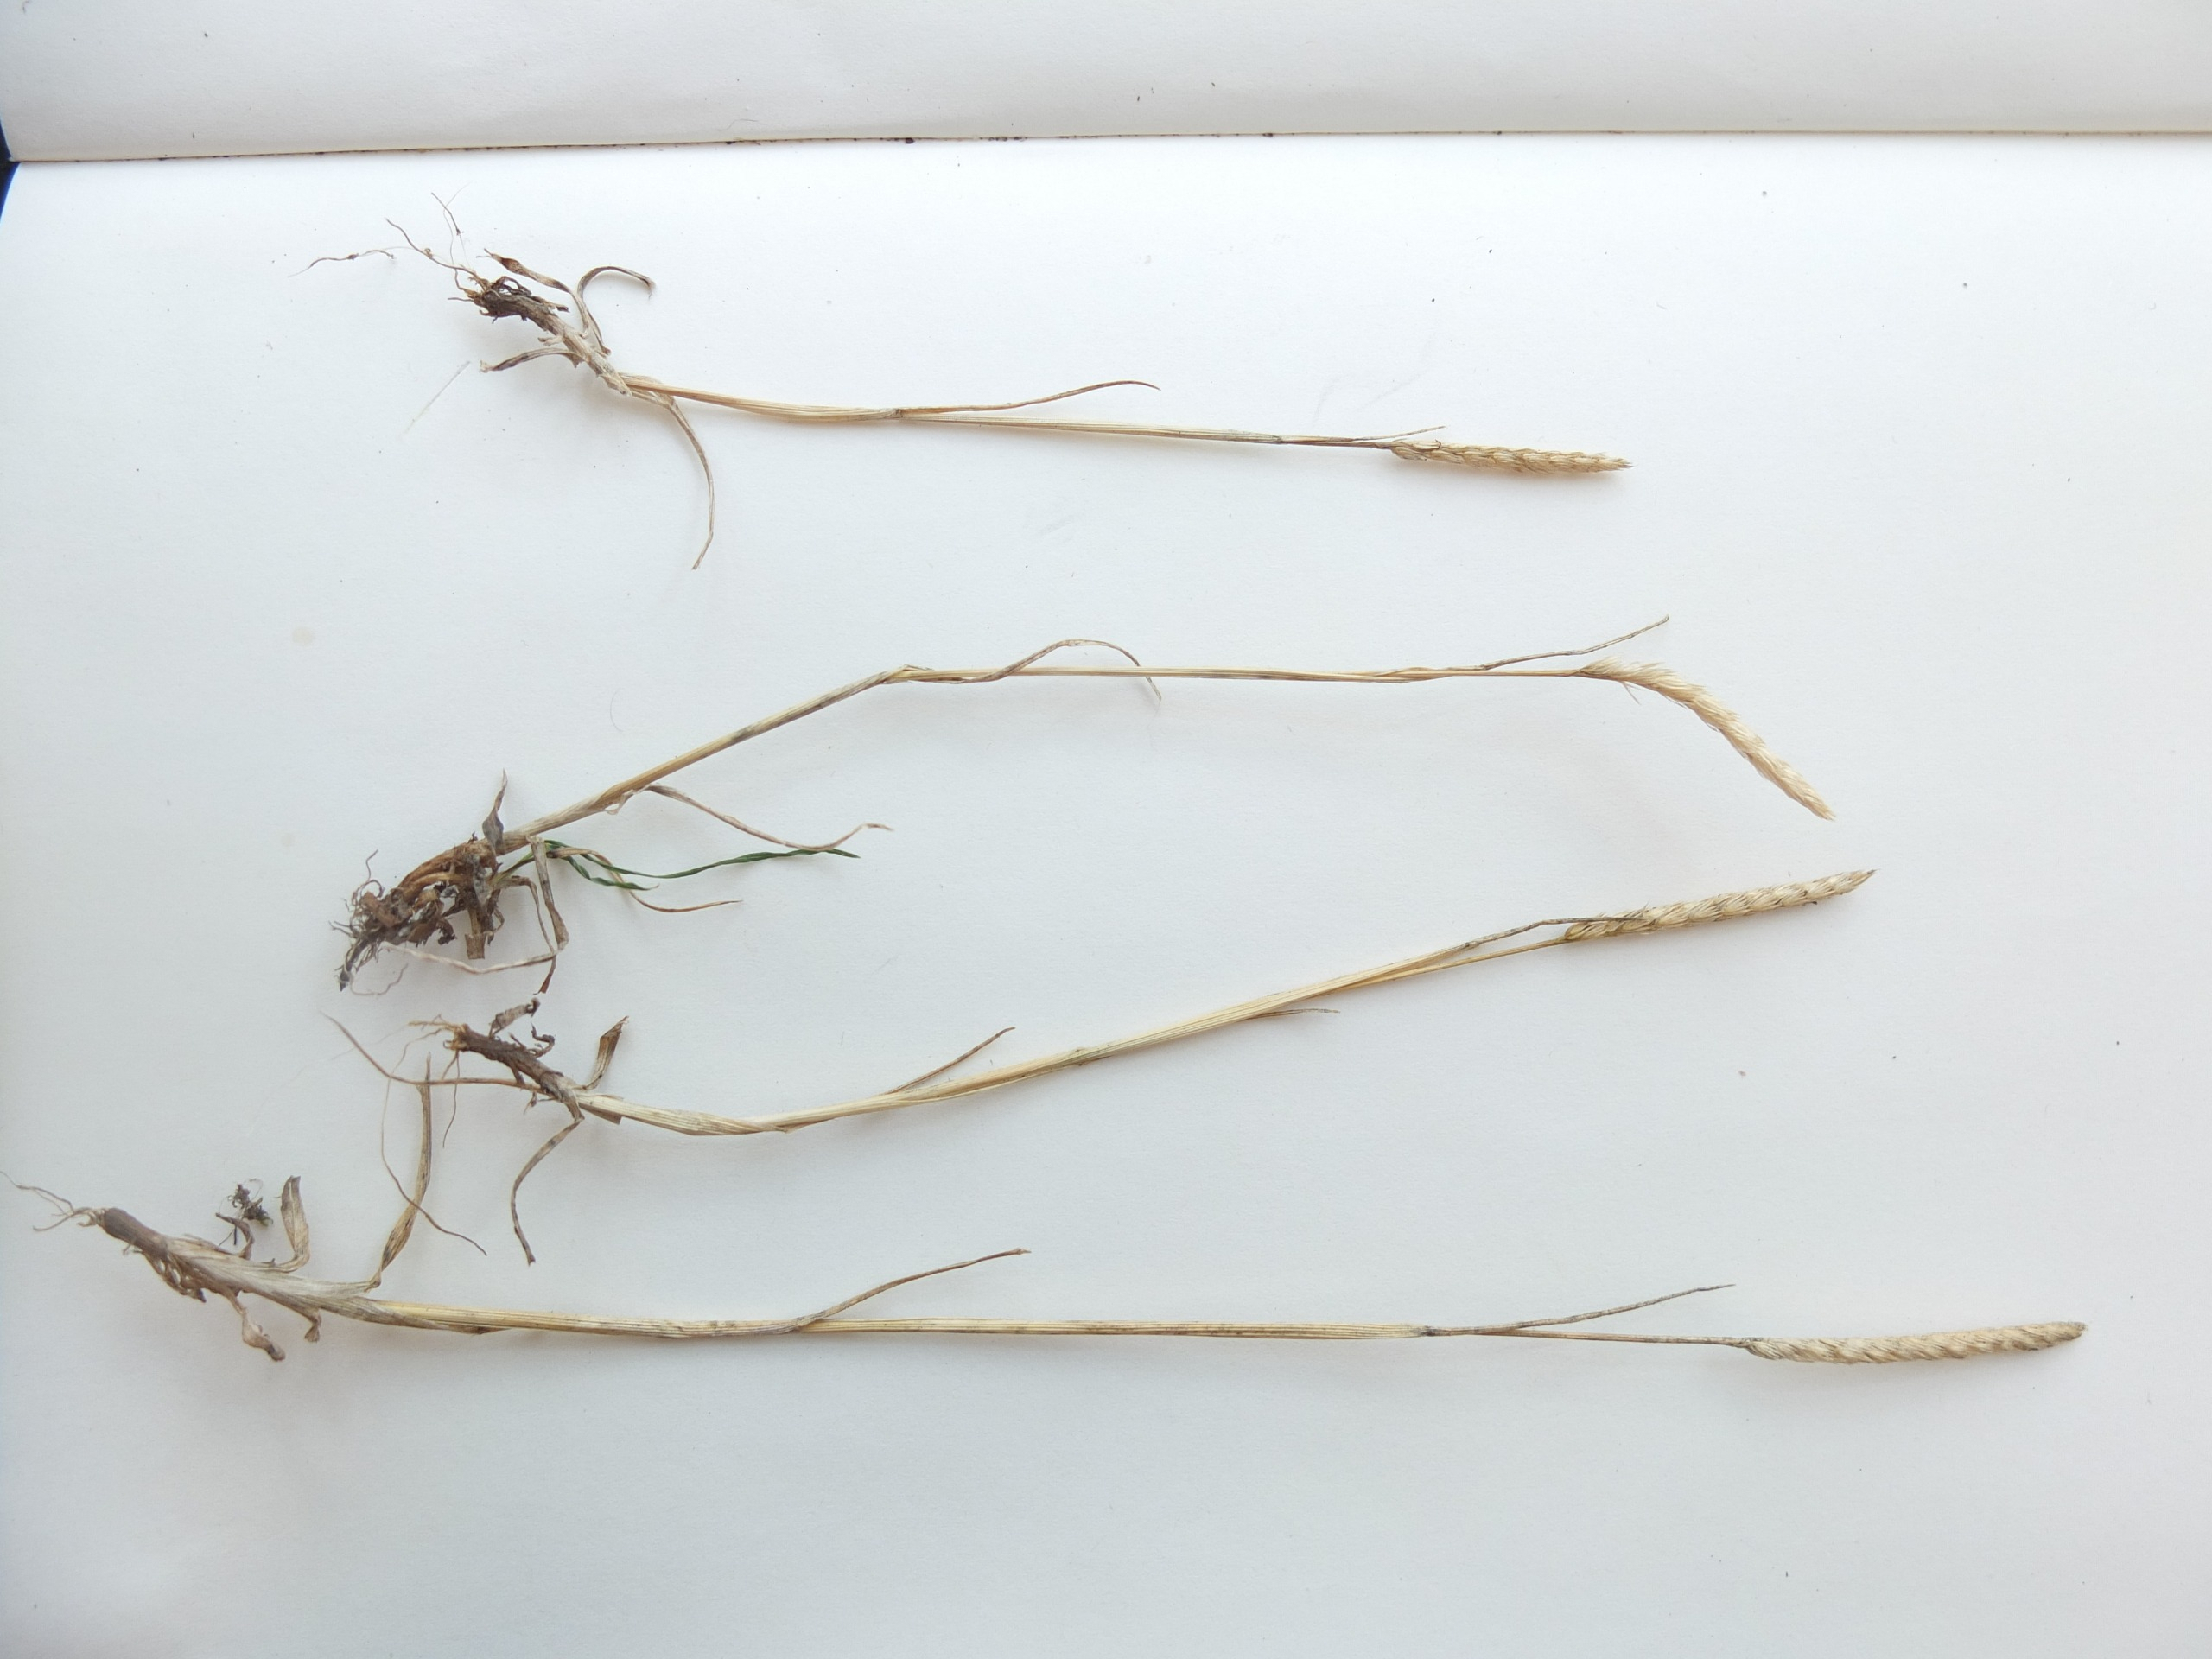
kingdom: Plantae
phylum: Tracheophyta
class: Liliopsida
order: Poales
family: Poaceae
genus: Cynosurus
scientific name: Cynosurus cristatus
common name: Kamgræs
